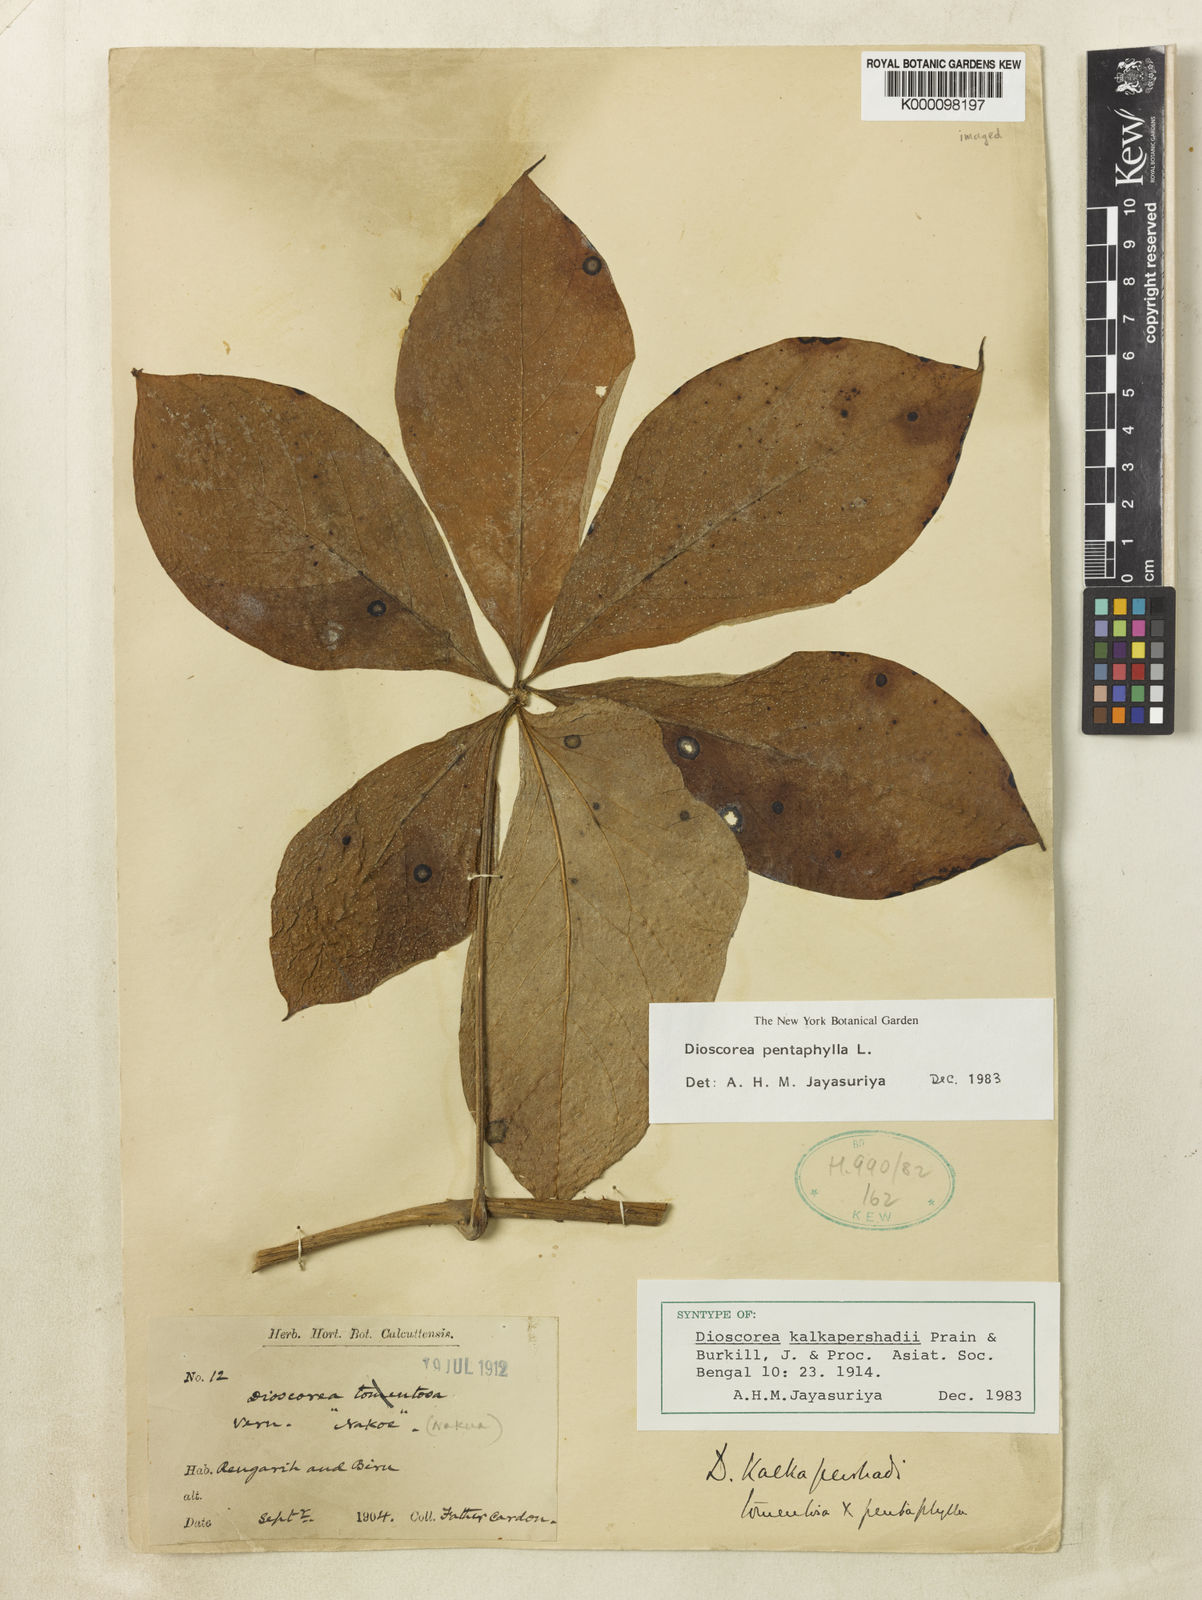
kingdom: Plantae
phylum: Tracheophyta
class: Liliopsida
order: Dioscoreales
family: Dioscoreaceae
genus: Dioscorea
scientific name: Dioscorea kalkapershadii
